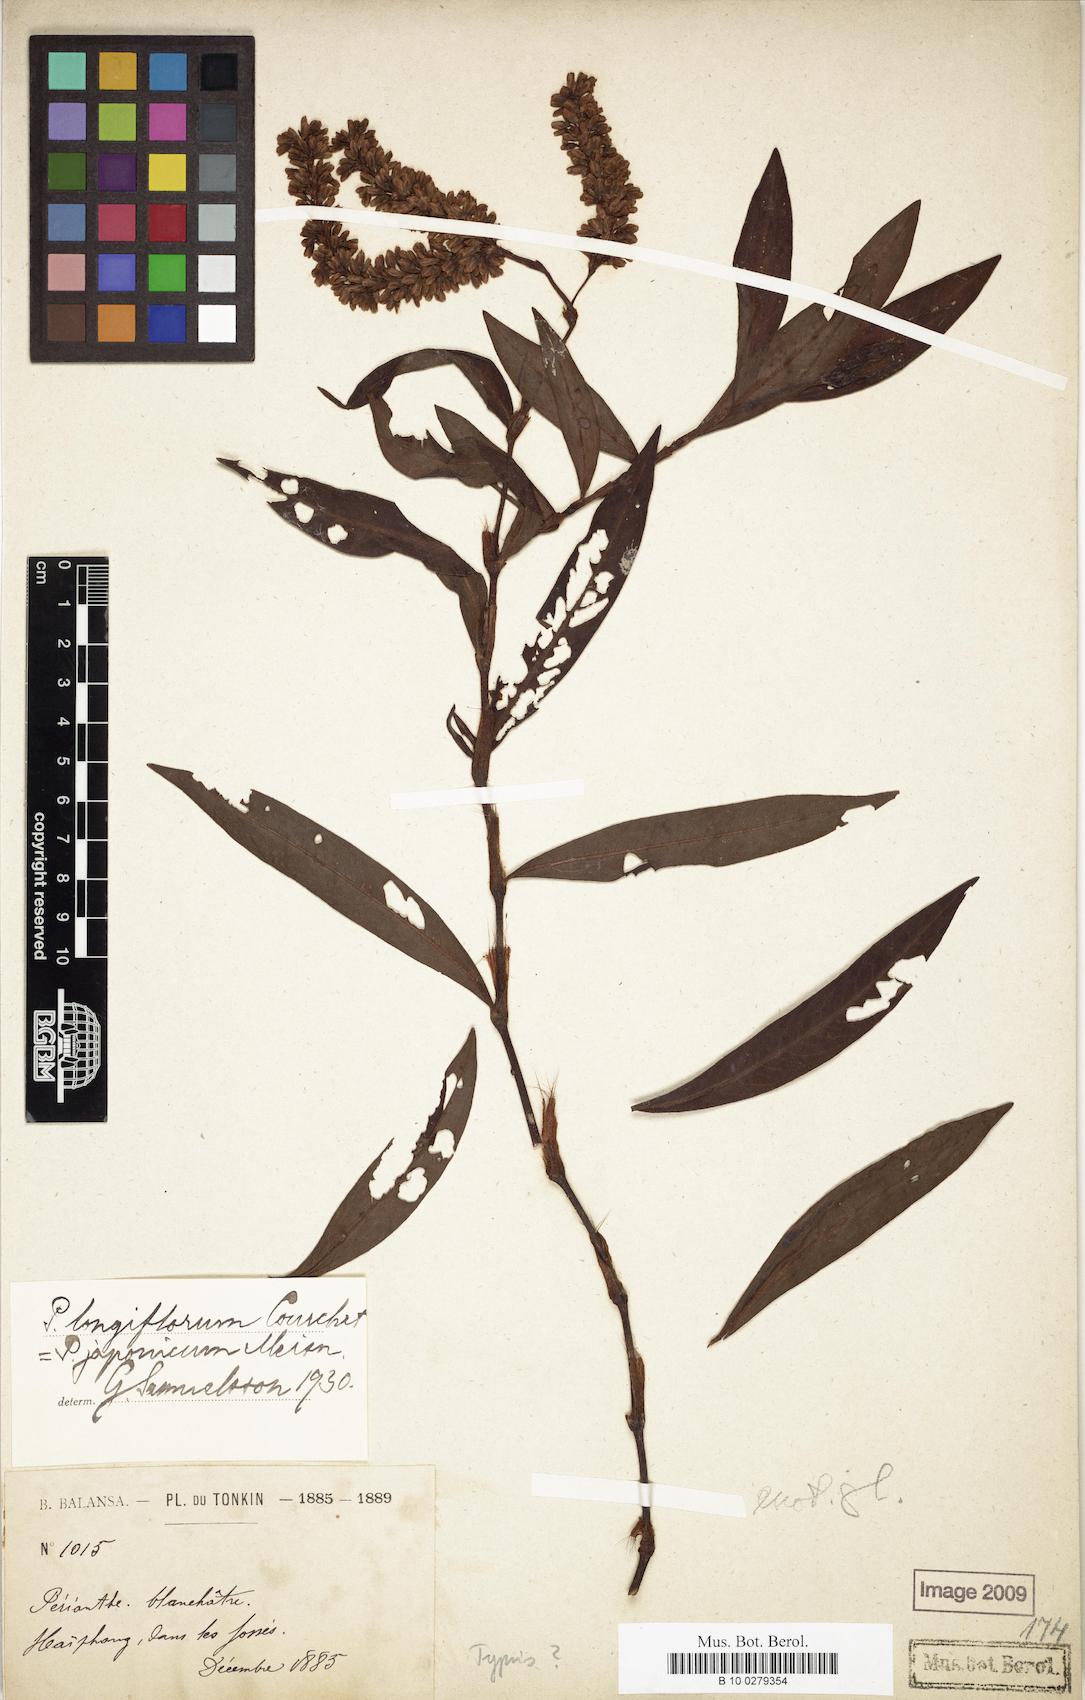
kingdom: Plantae
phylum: Tracheophyta
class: Magnoliopsida
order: Caryophyllales
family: Polygonaceae
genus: Persicaria
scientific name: Persicaria longiflora
